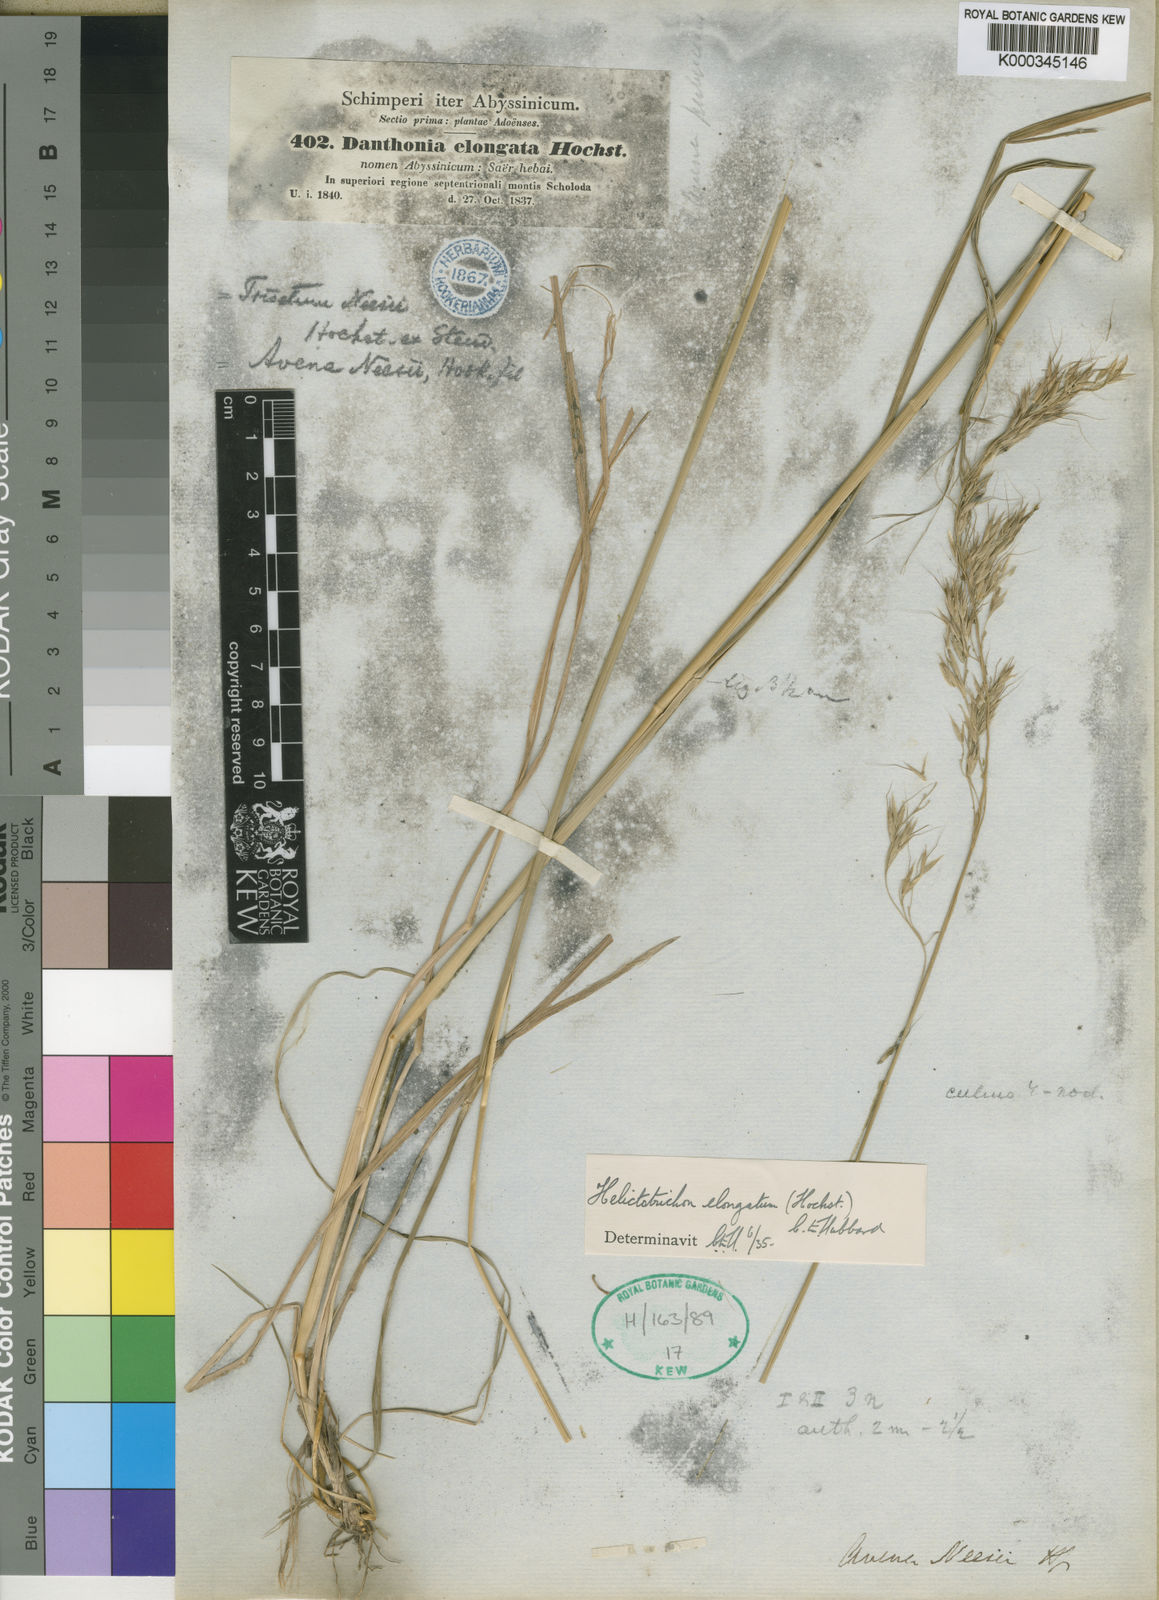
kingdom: Plantae
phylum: Tracheophyta
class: Liliopsida
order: Poales
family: Poaceae
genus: Trisetopsis
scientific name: Trisetopsis elongata
